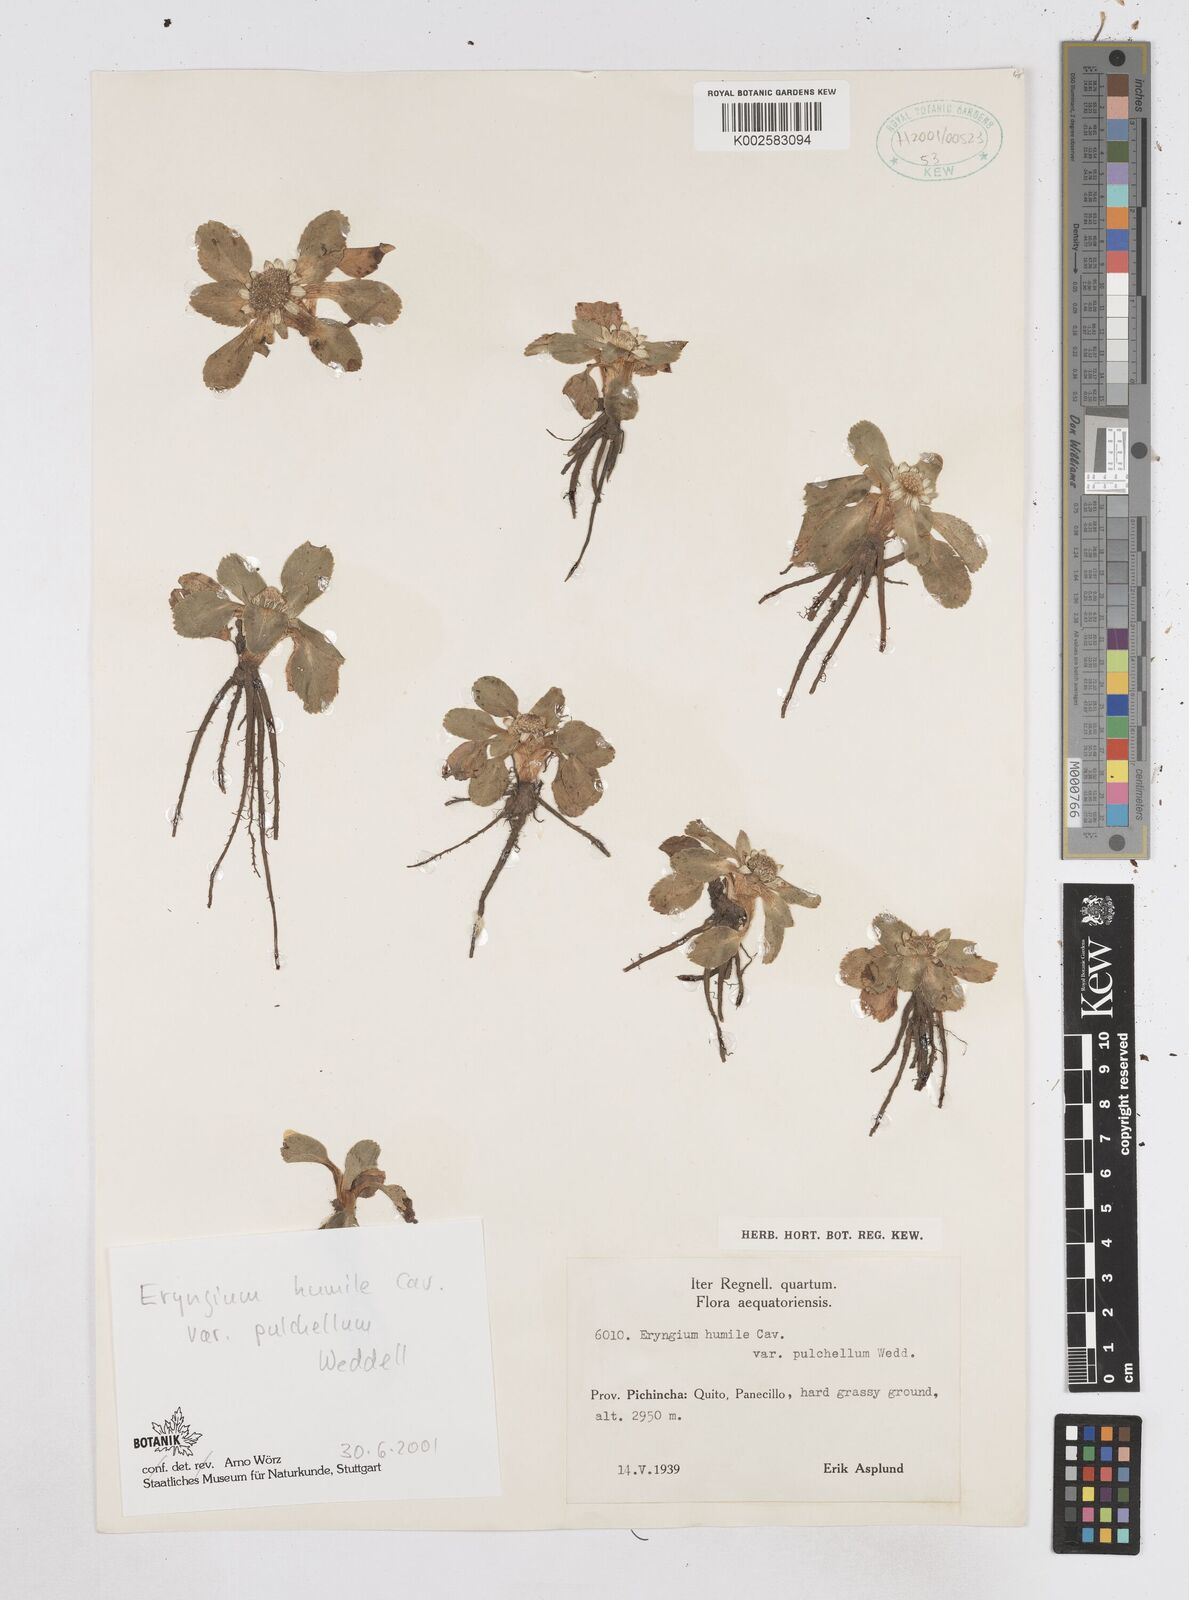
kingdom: Plantae
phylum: Tracheophyta
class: Magnoliopsida
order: Apiales
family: Apiaceae
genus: Eryngium
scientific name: Eryngium humile
